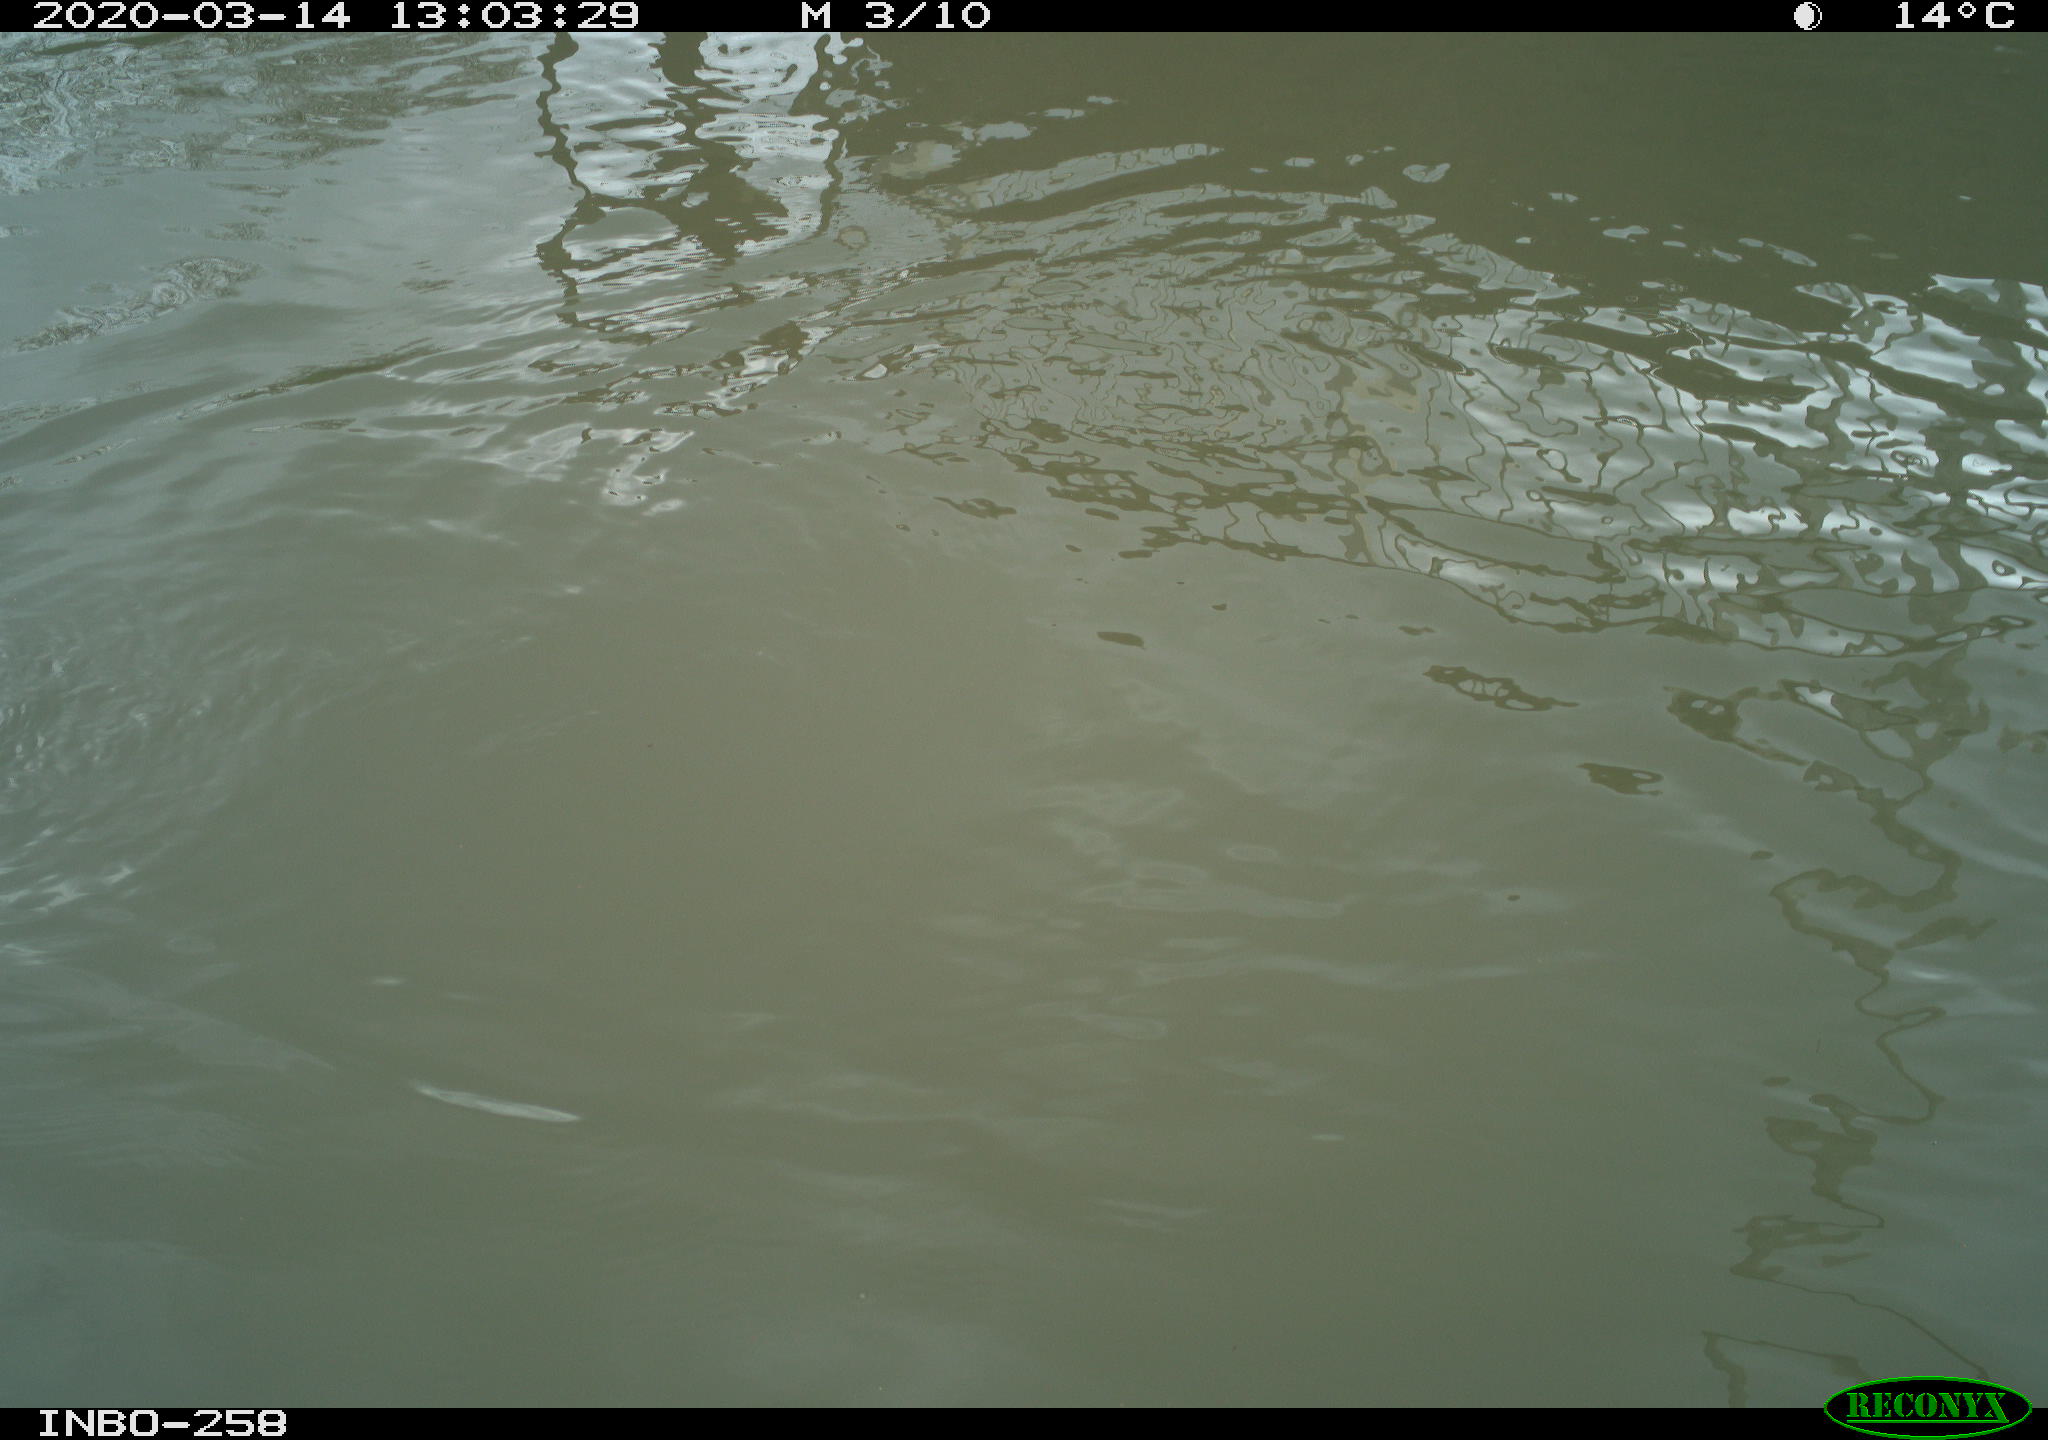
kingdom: Animalia
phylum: Chordata
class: Aves
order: Anseriformes
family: Anatidae
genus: Anas
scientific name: Anas platyrhynchos
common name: Mallard
